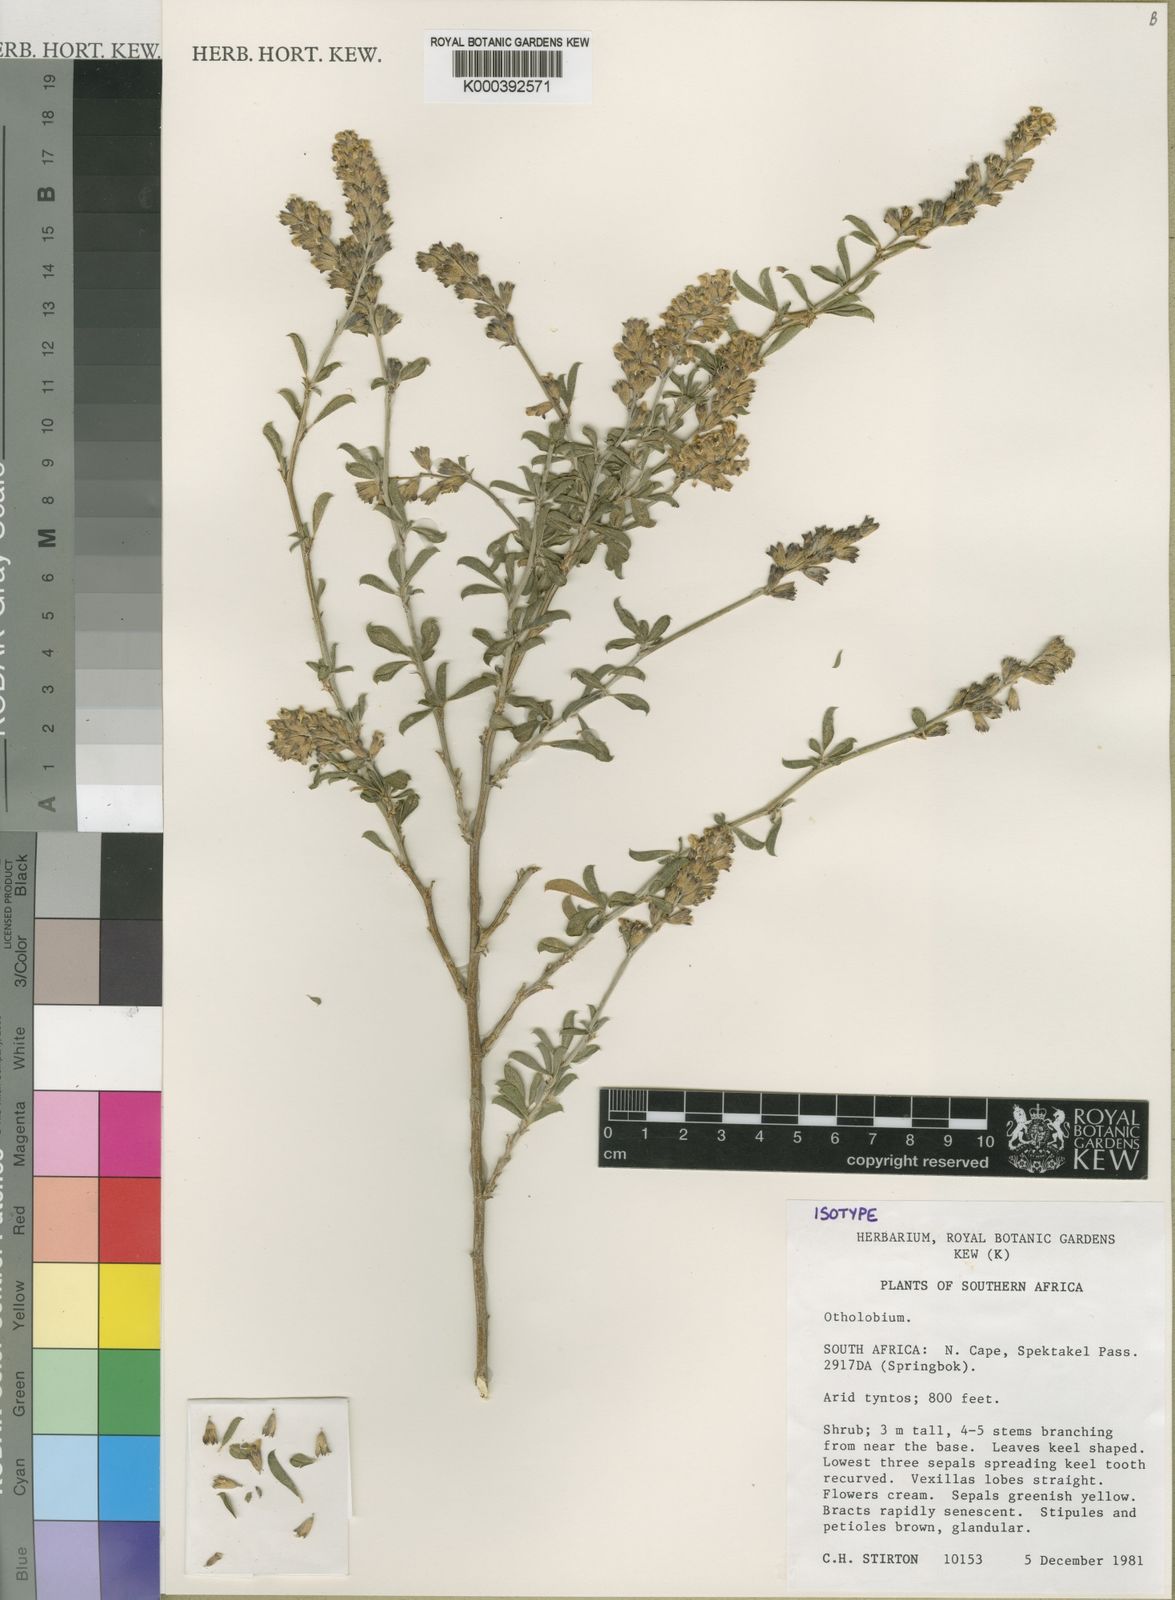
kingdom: Plantae
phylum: Tracheophyta
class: Magnoliopsida
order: Fabales
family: Fabaceae
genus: Psoralea
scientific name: Psoralea arborescens
